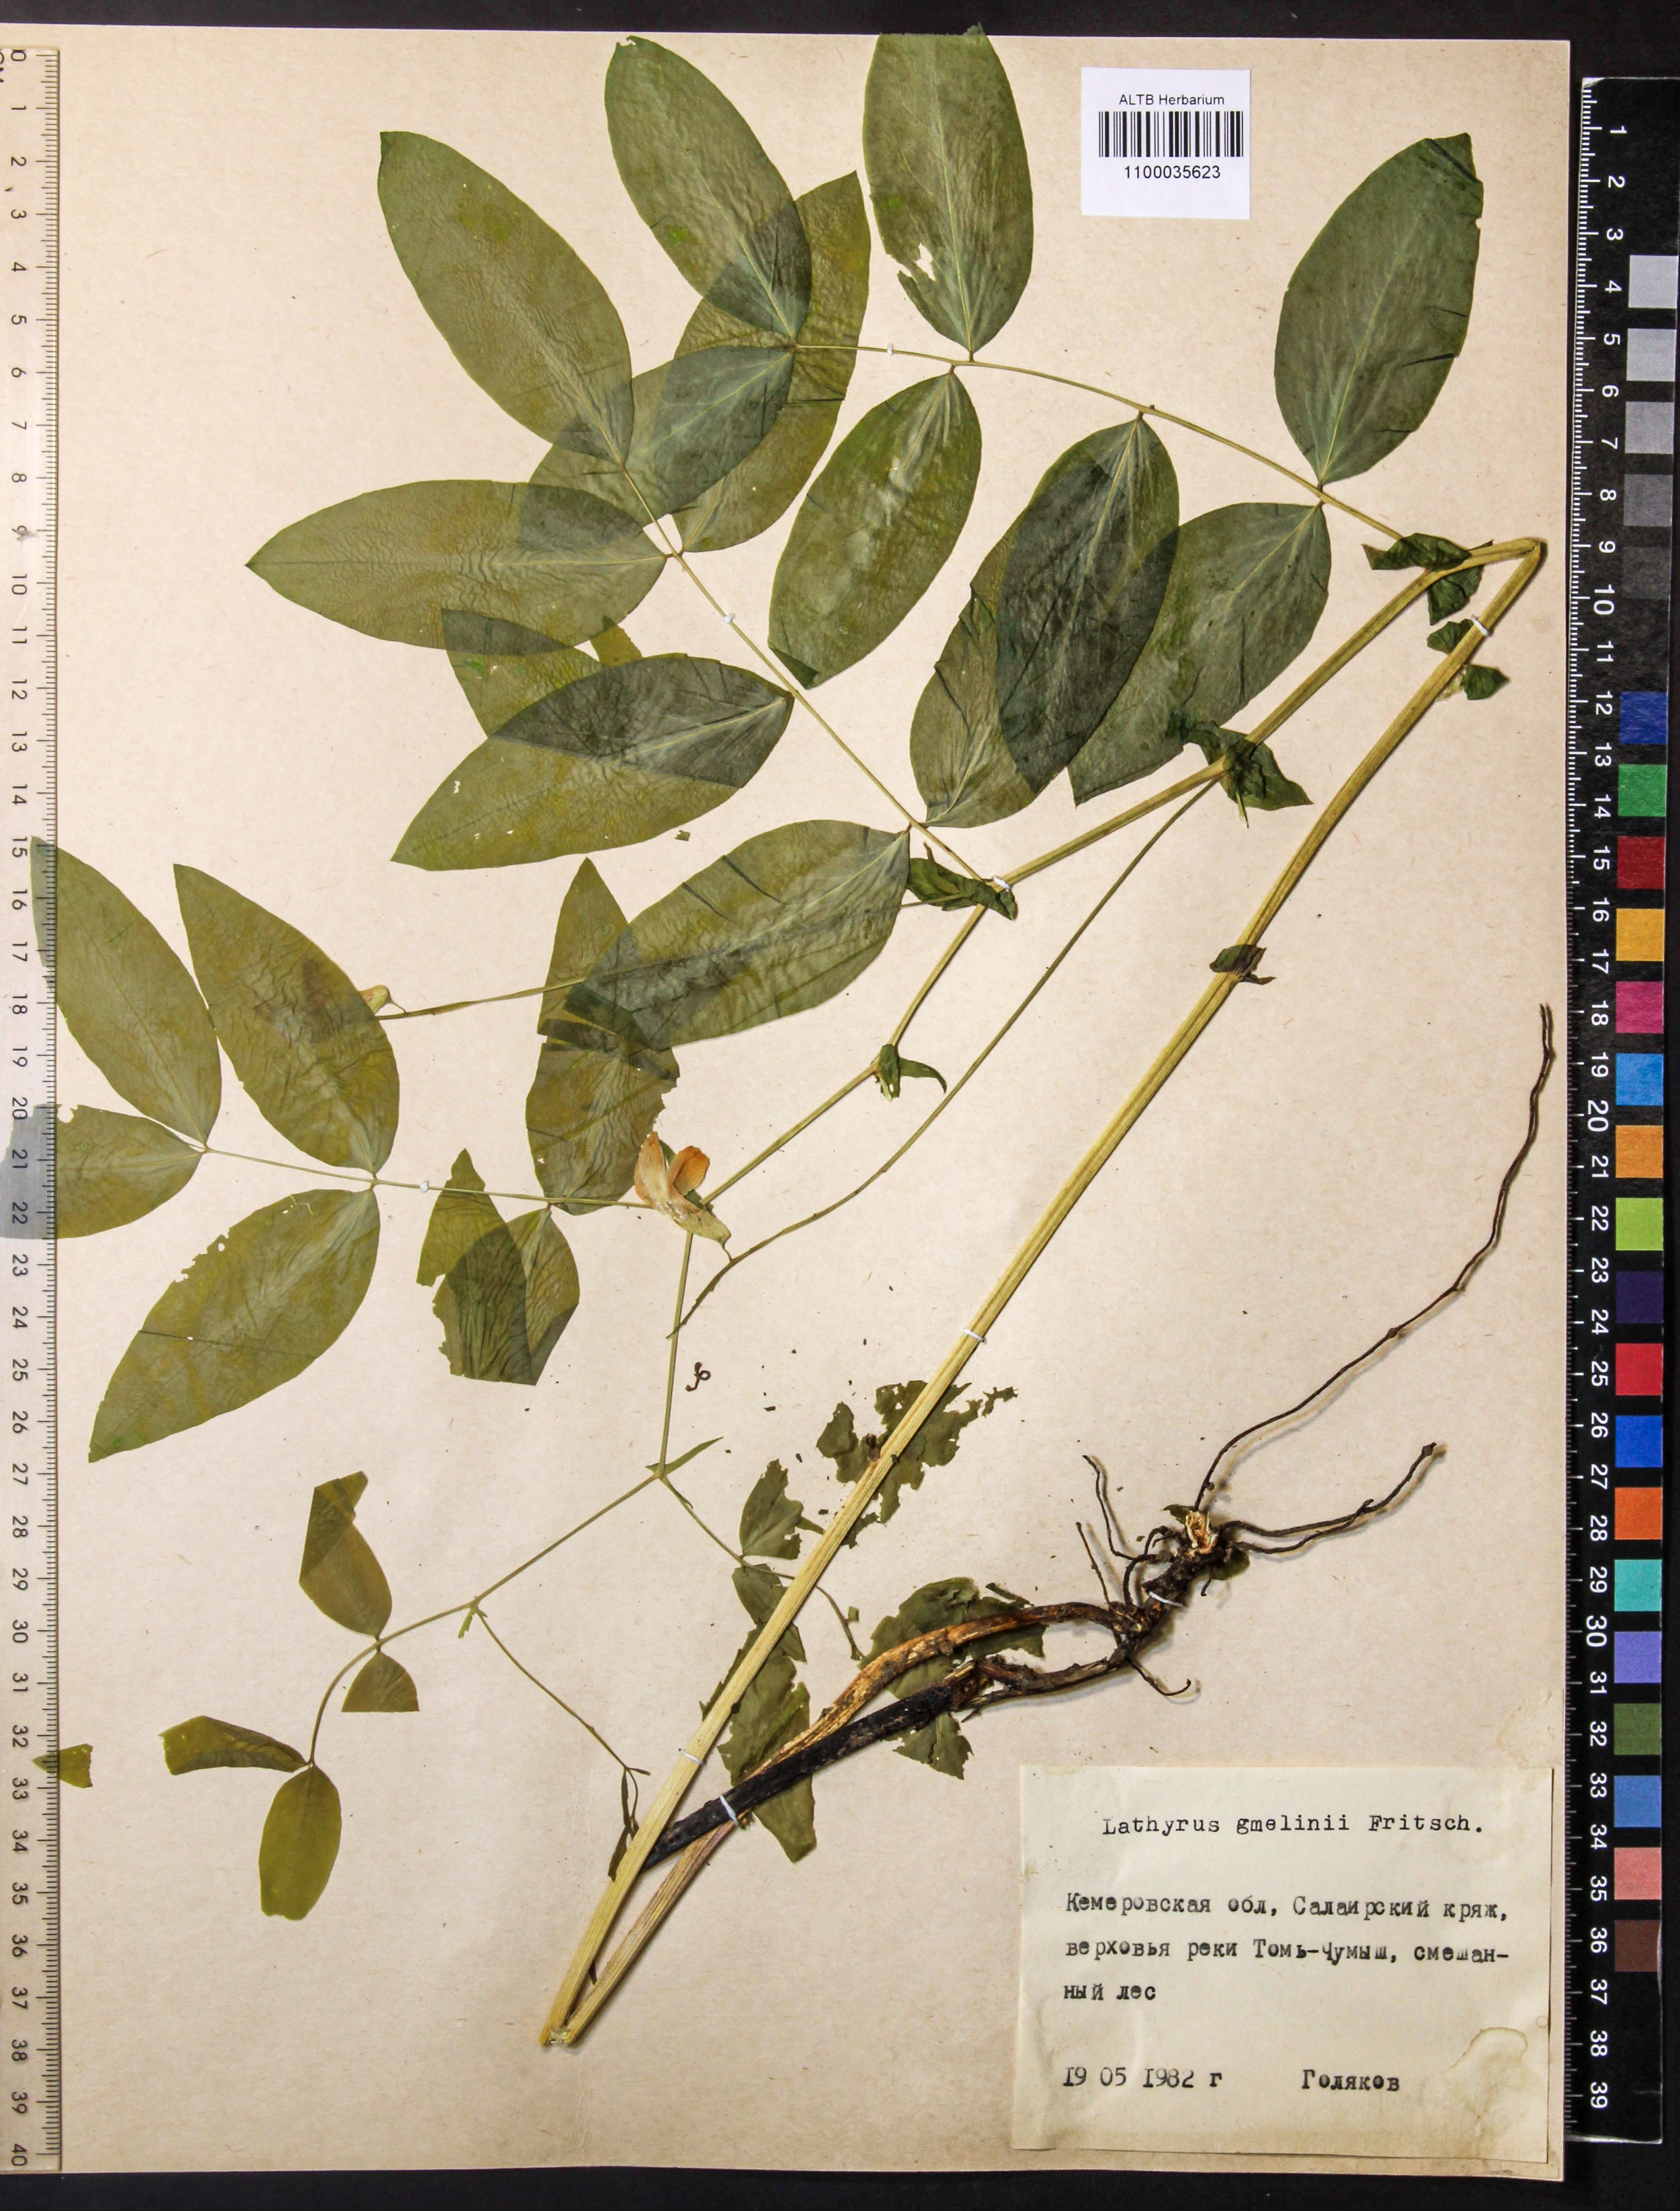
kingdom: Plantae
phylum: Tracheophyta
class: Magnoliopsida
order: Fabales
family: Fabaceae
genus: Lathyrus
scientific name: Lathyrus gmelinii
